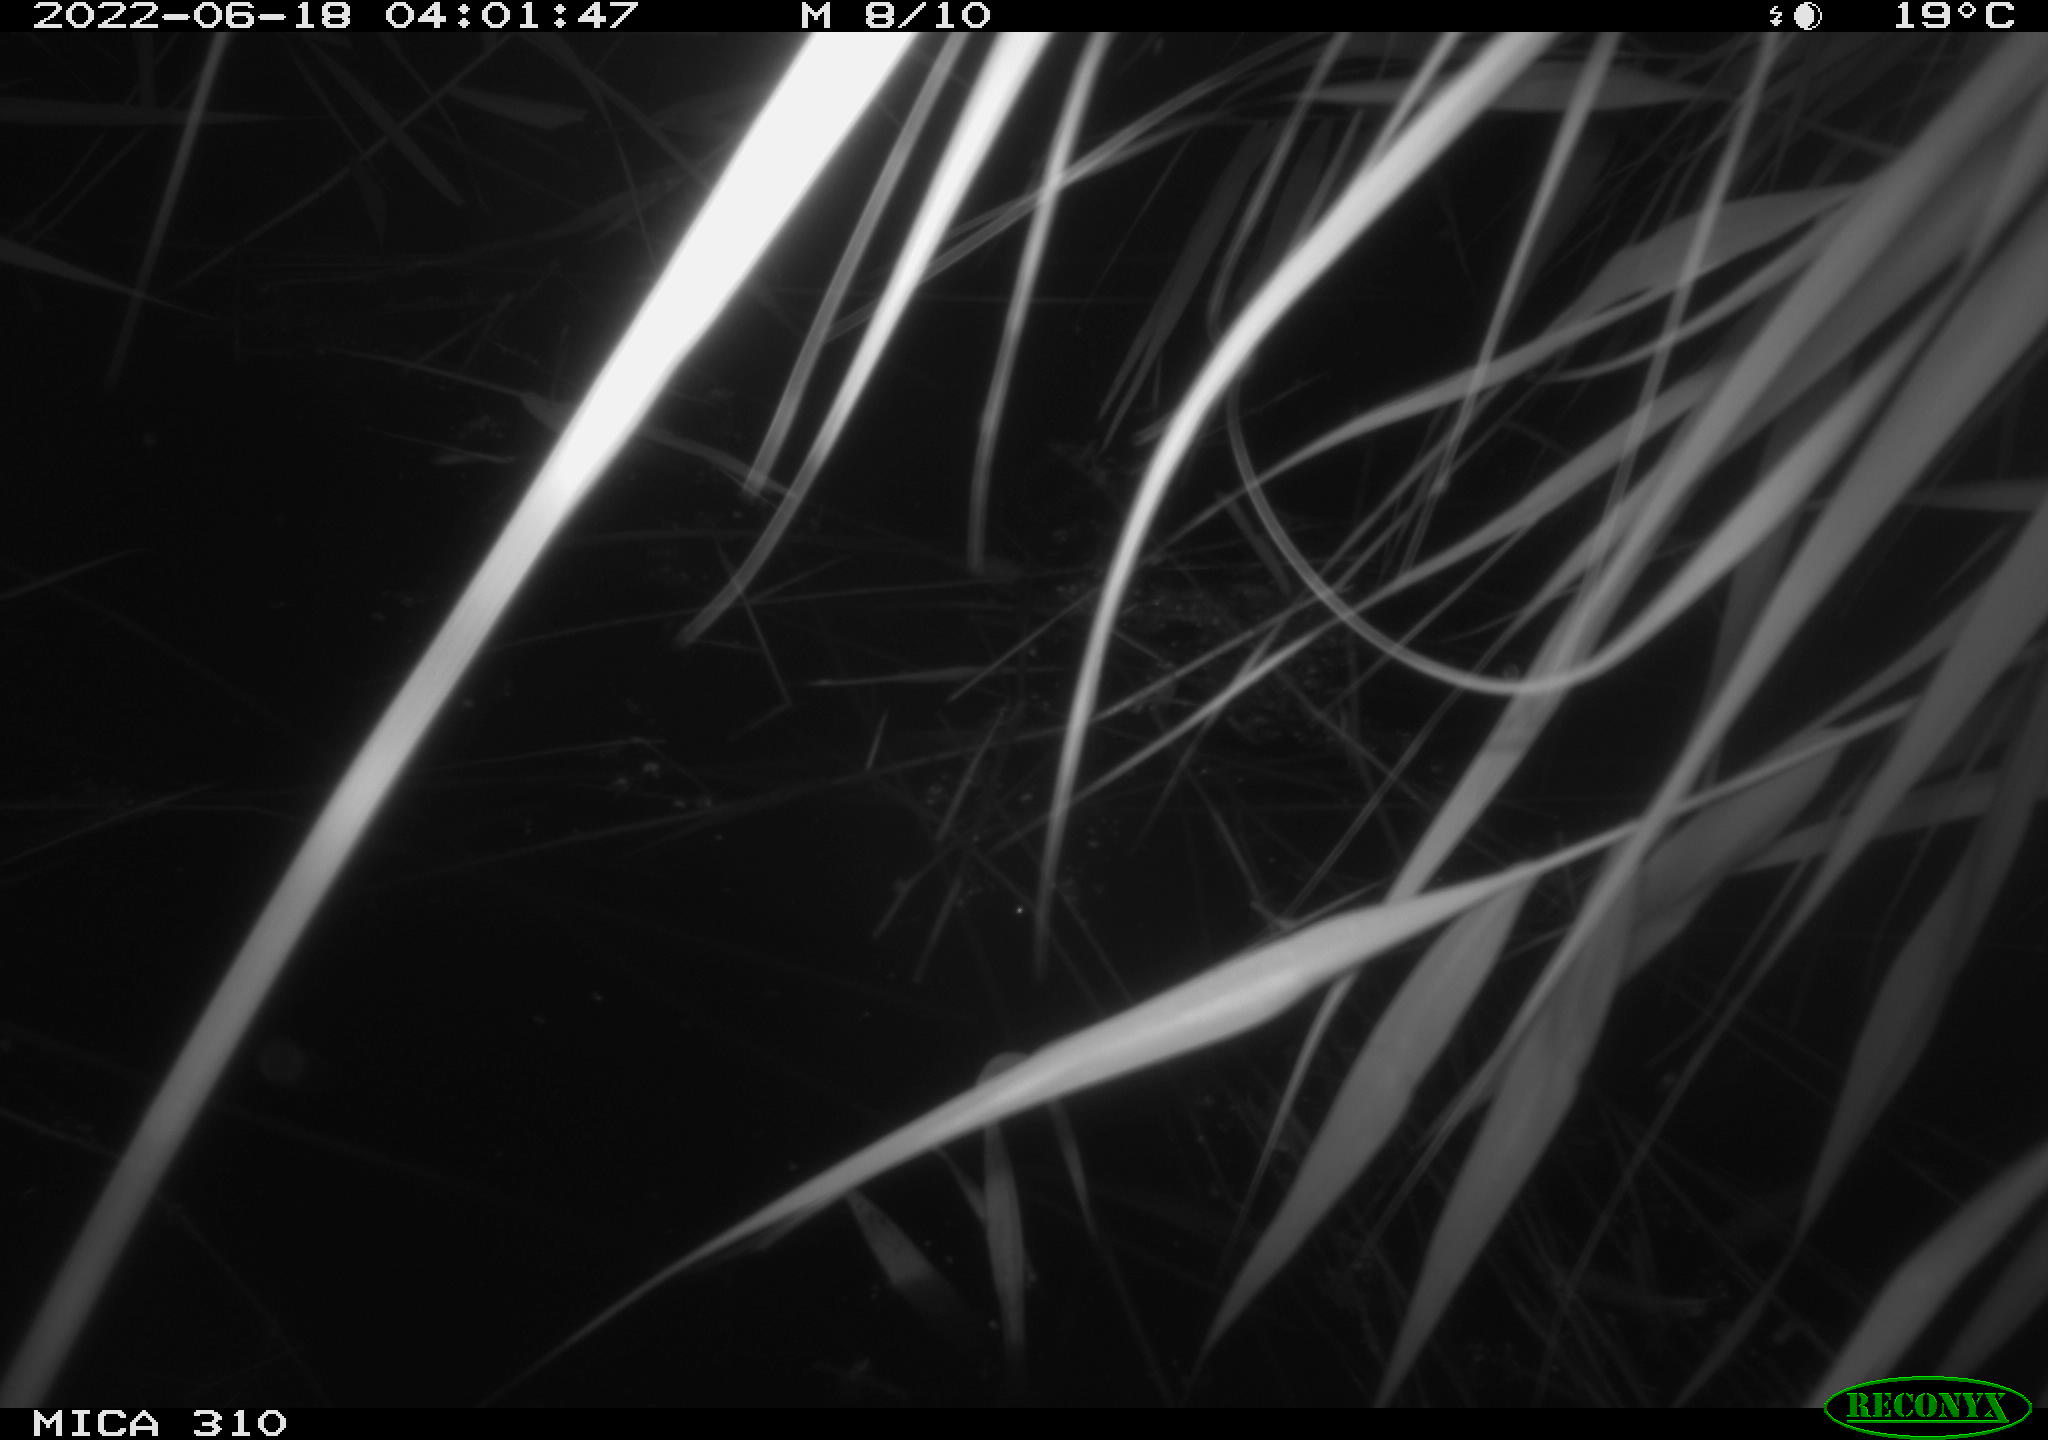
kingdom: Animalia
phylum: Chordata
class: Aves
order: Anseriformes
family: Anatidae
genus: Anas
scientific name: Anas platyrhynchos
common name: Mallard
